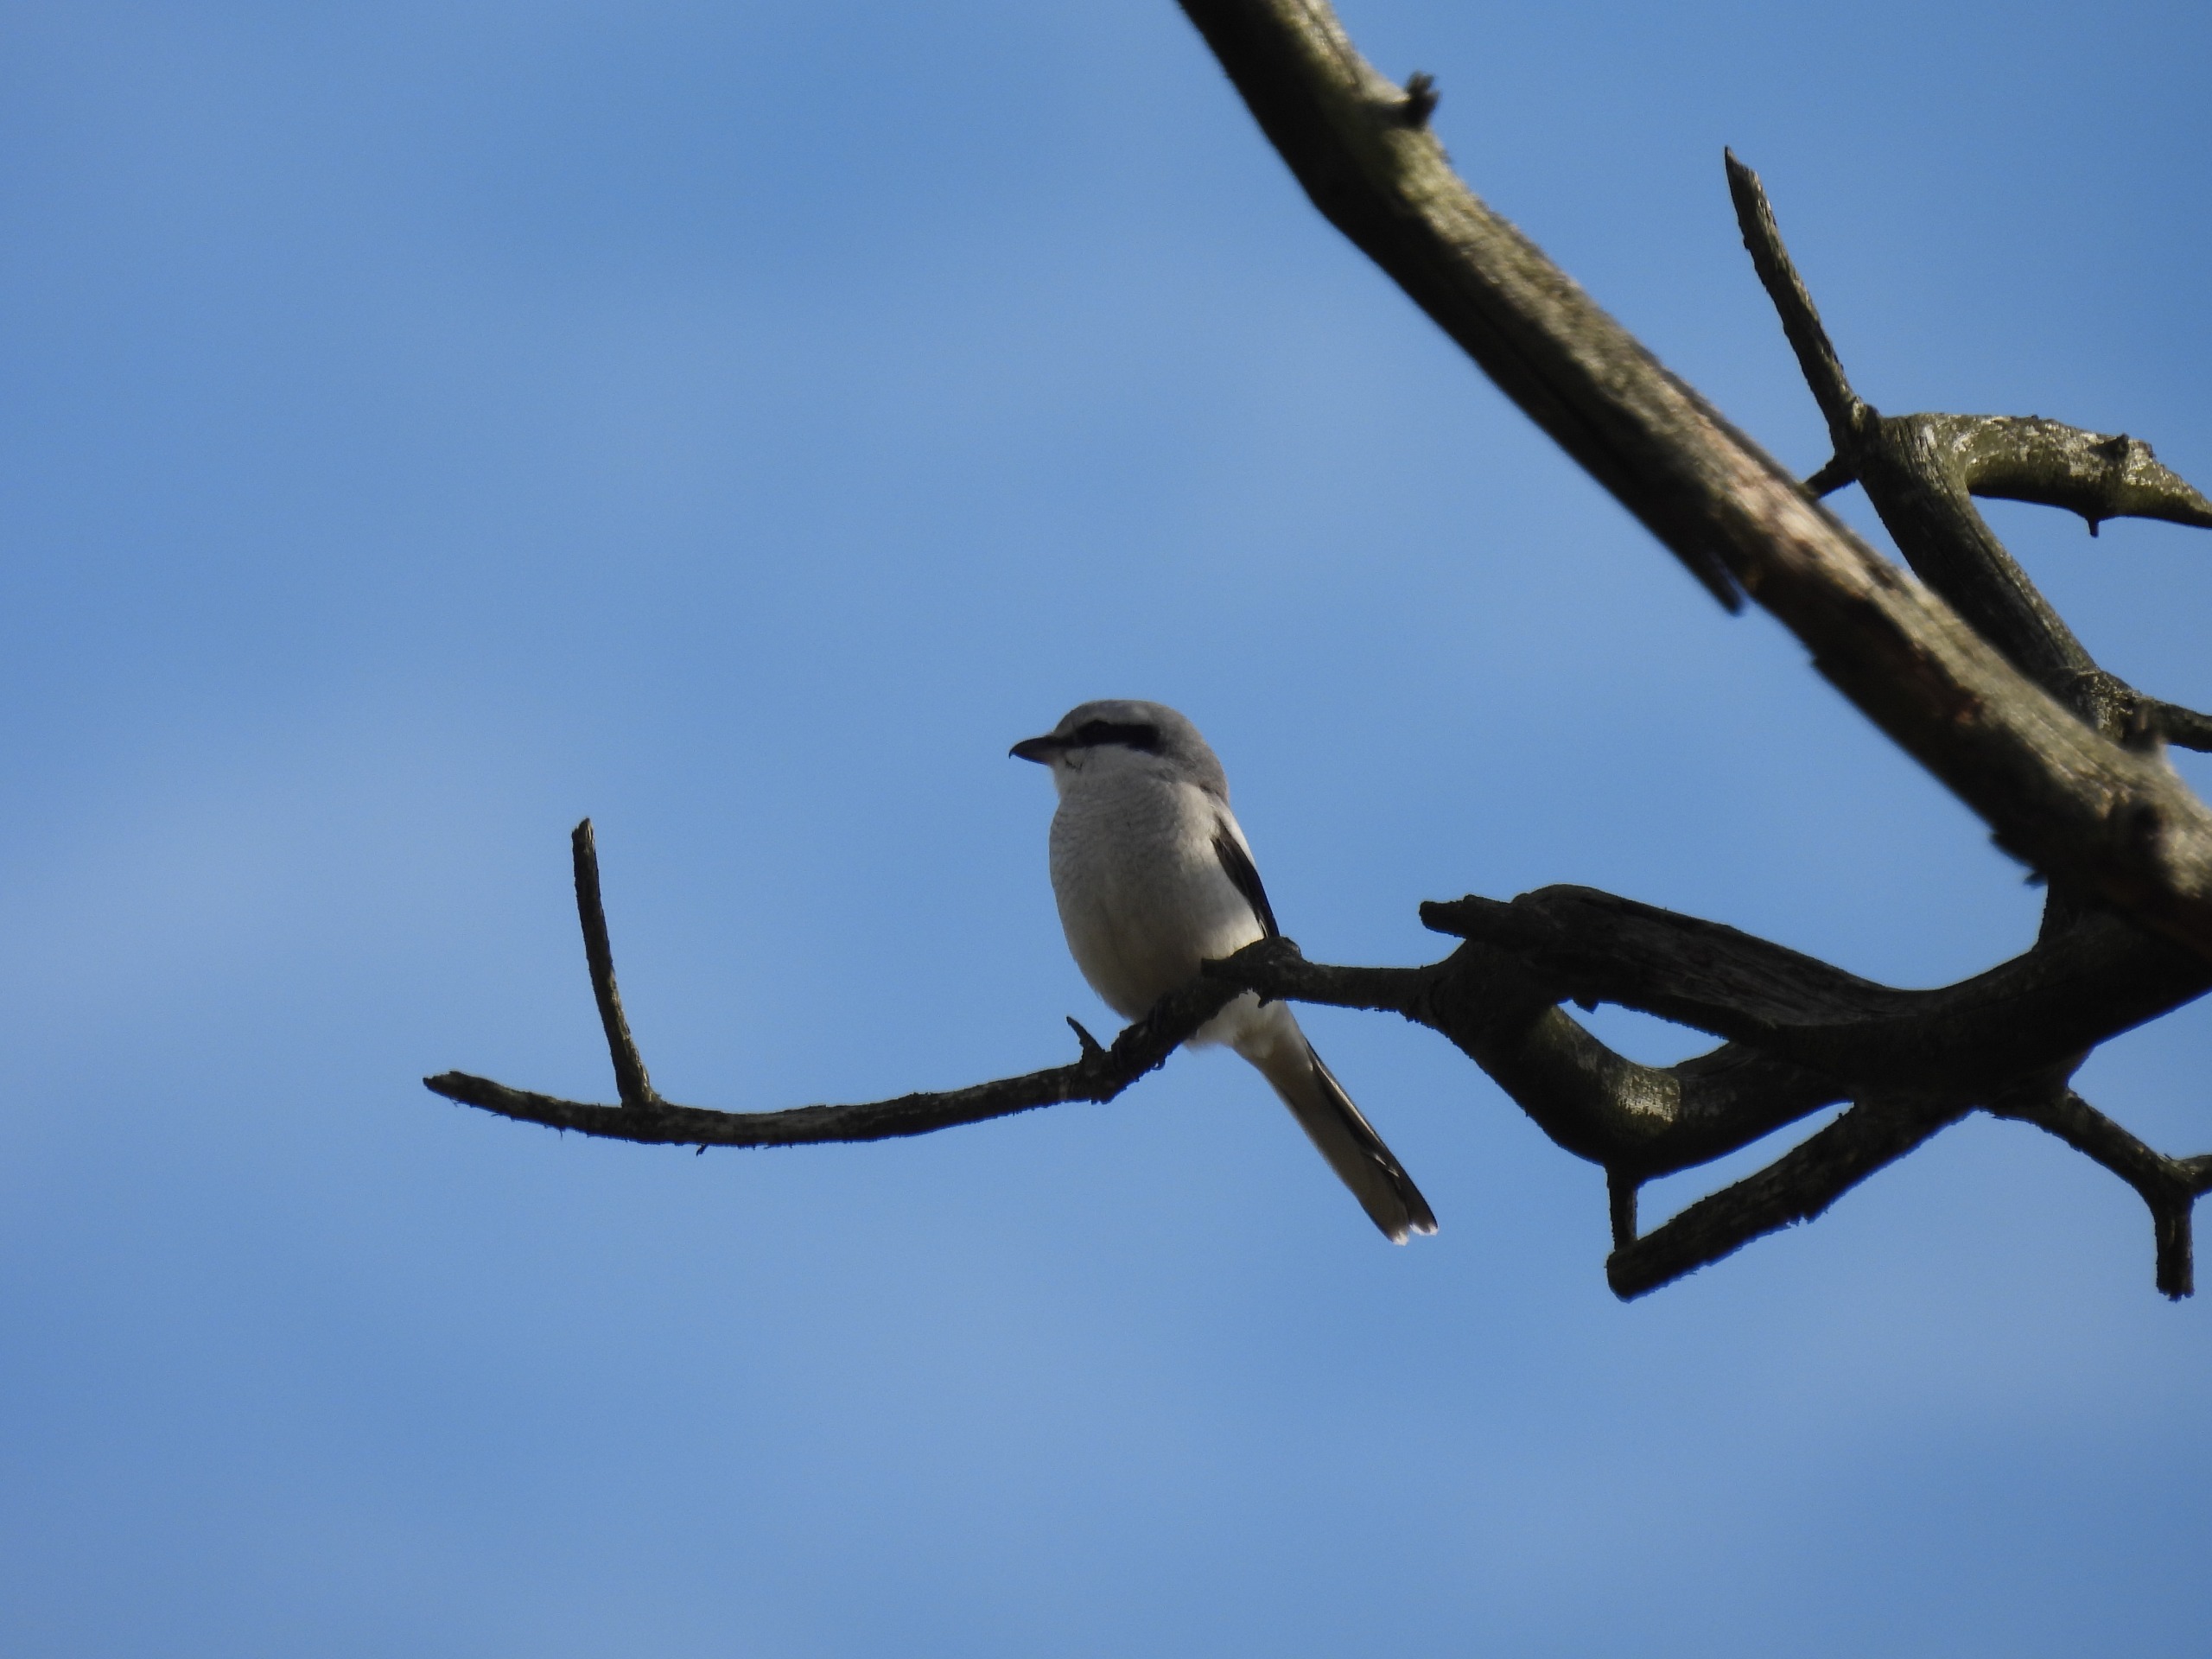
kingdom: Animalia
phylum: Chordata
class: Aves
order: Passeriformes
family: Laniidae
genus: Lanius
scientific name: Lanius excubitor
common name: Stor tornskade
